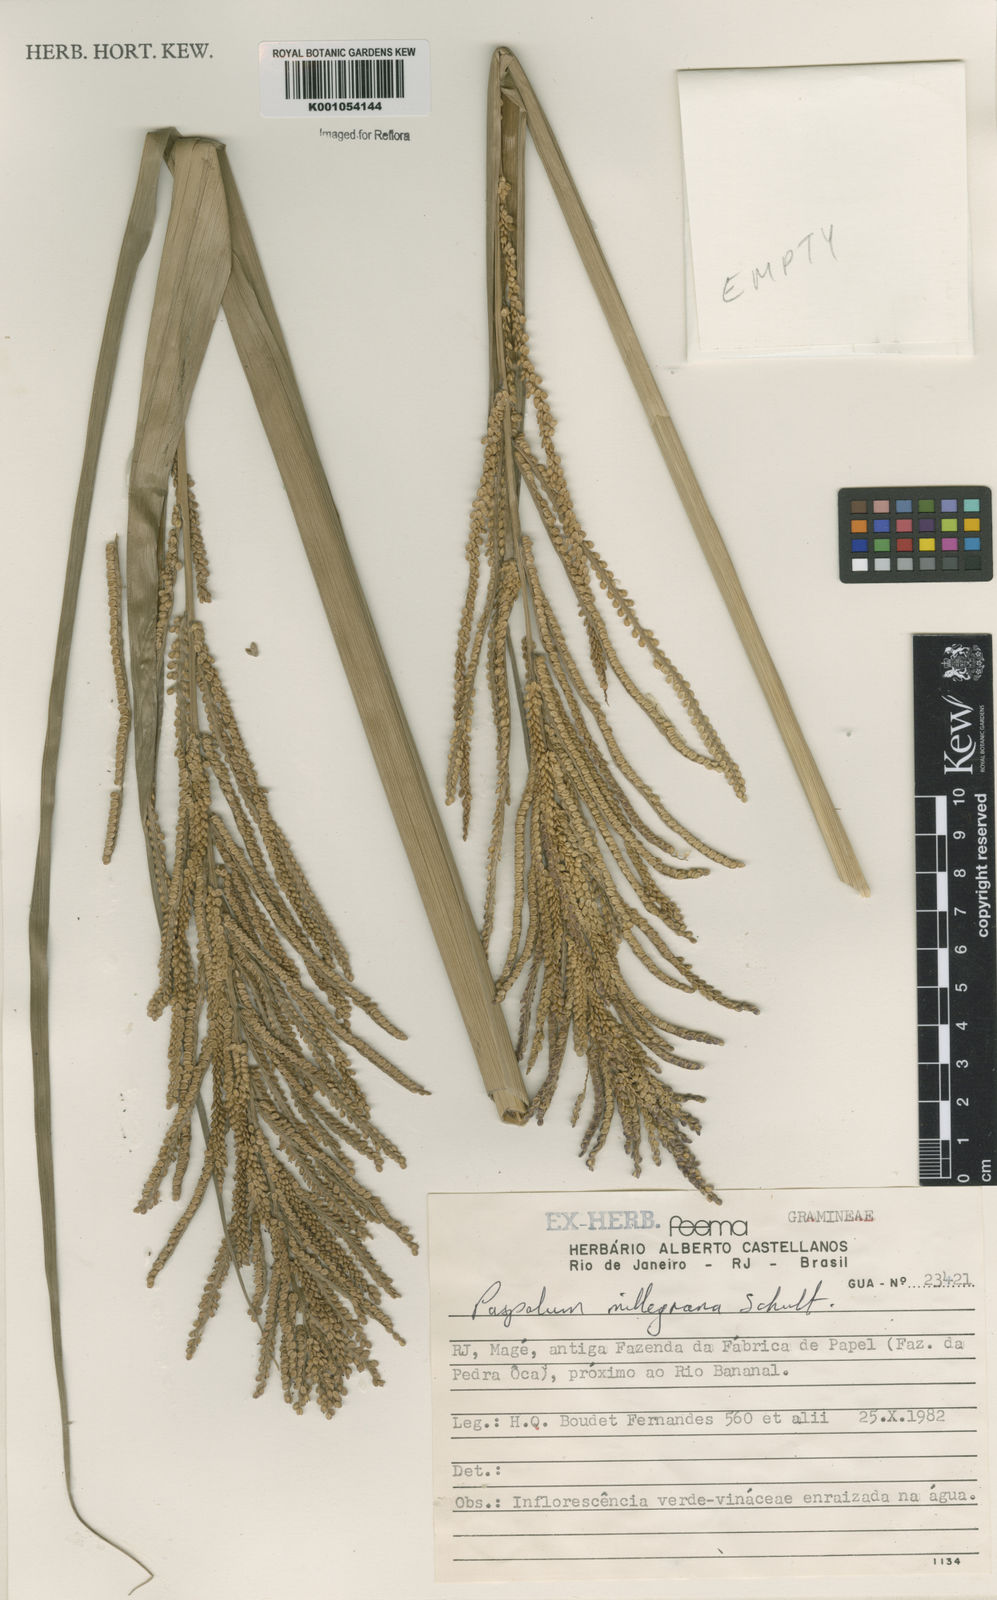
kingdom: Plantae
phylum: Tracheophyta
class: Liliopsida
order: Poales
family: Poaceae
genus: Paspalum
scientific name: Paspalum
